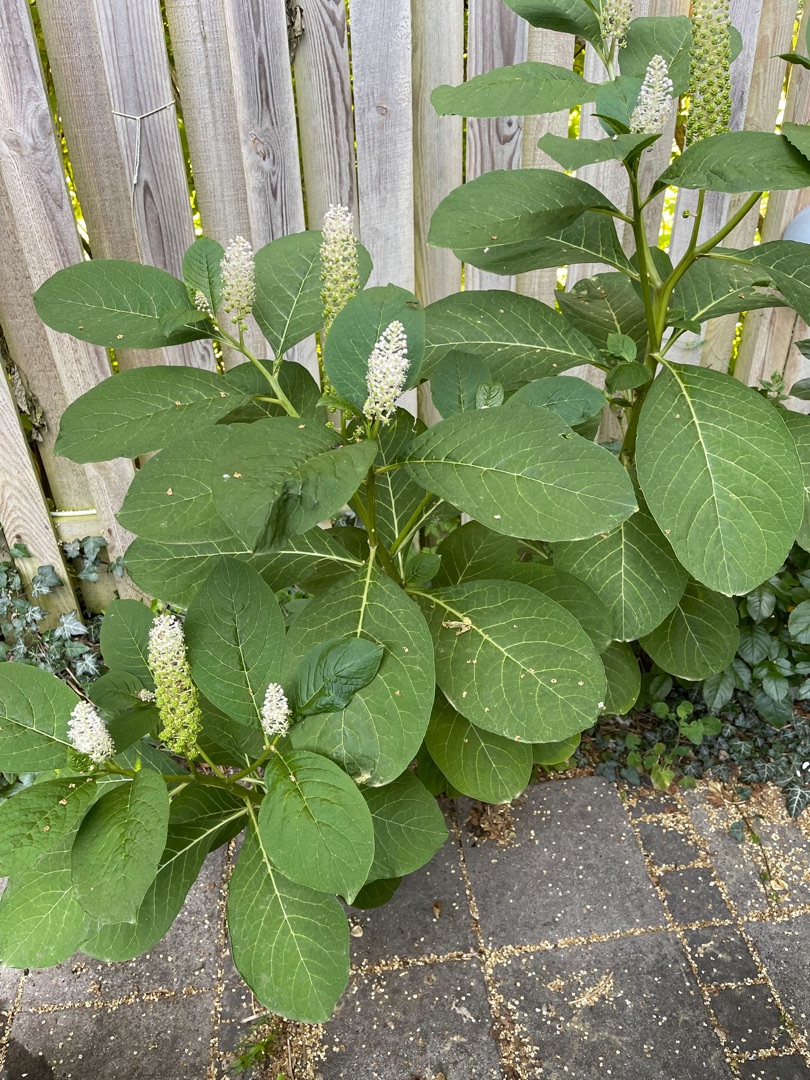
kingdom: Plantae
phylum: Tracheophyta
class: Magnoliopsida
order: Caryophyllales
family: Phytolaccaceae
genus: Phytolacca
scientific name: Phytolacca acinosa
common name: Asiatisk kermesbær
